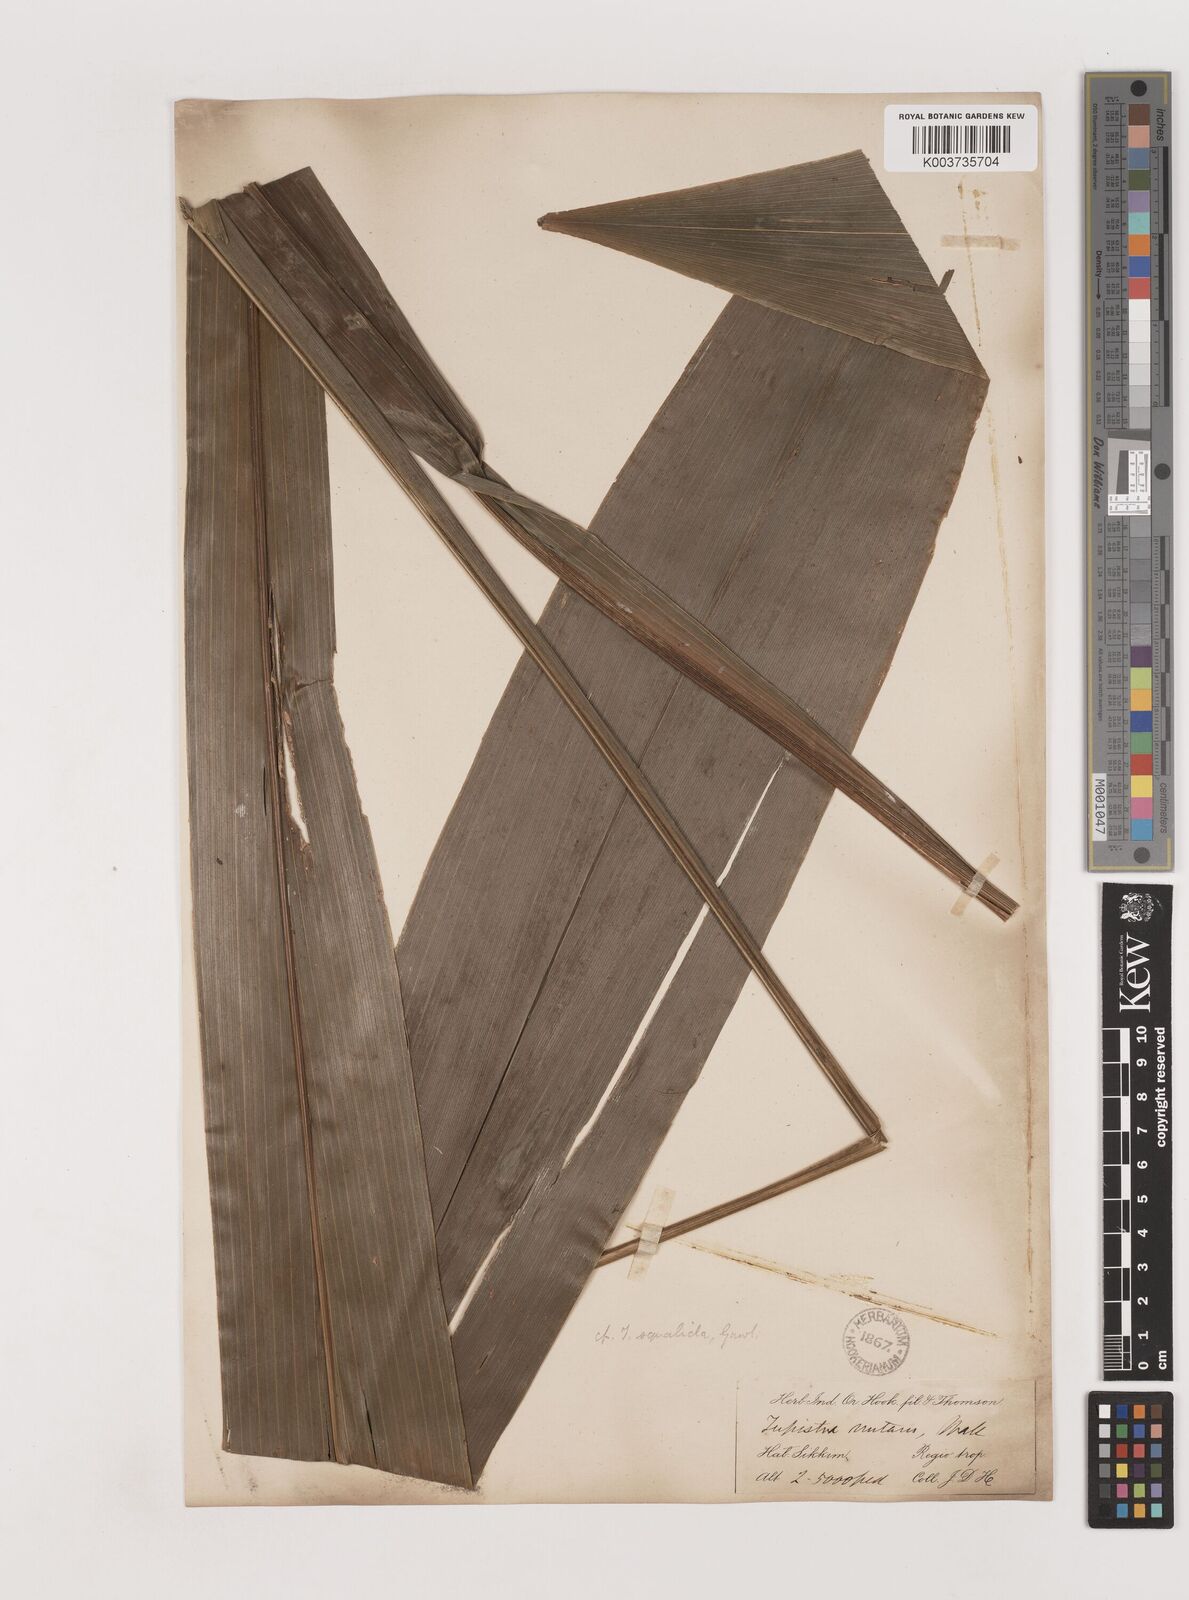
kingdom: Plantae
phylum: Tracheophyta
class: Liliopsida
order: Asparagales
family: Asparagaceae
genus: Tupistra
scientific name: Tupistra squalida
